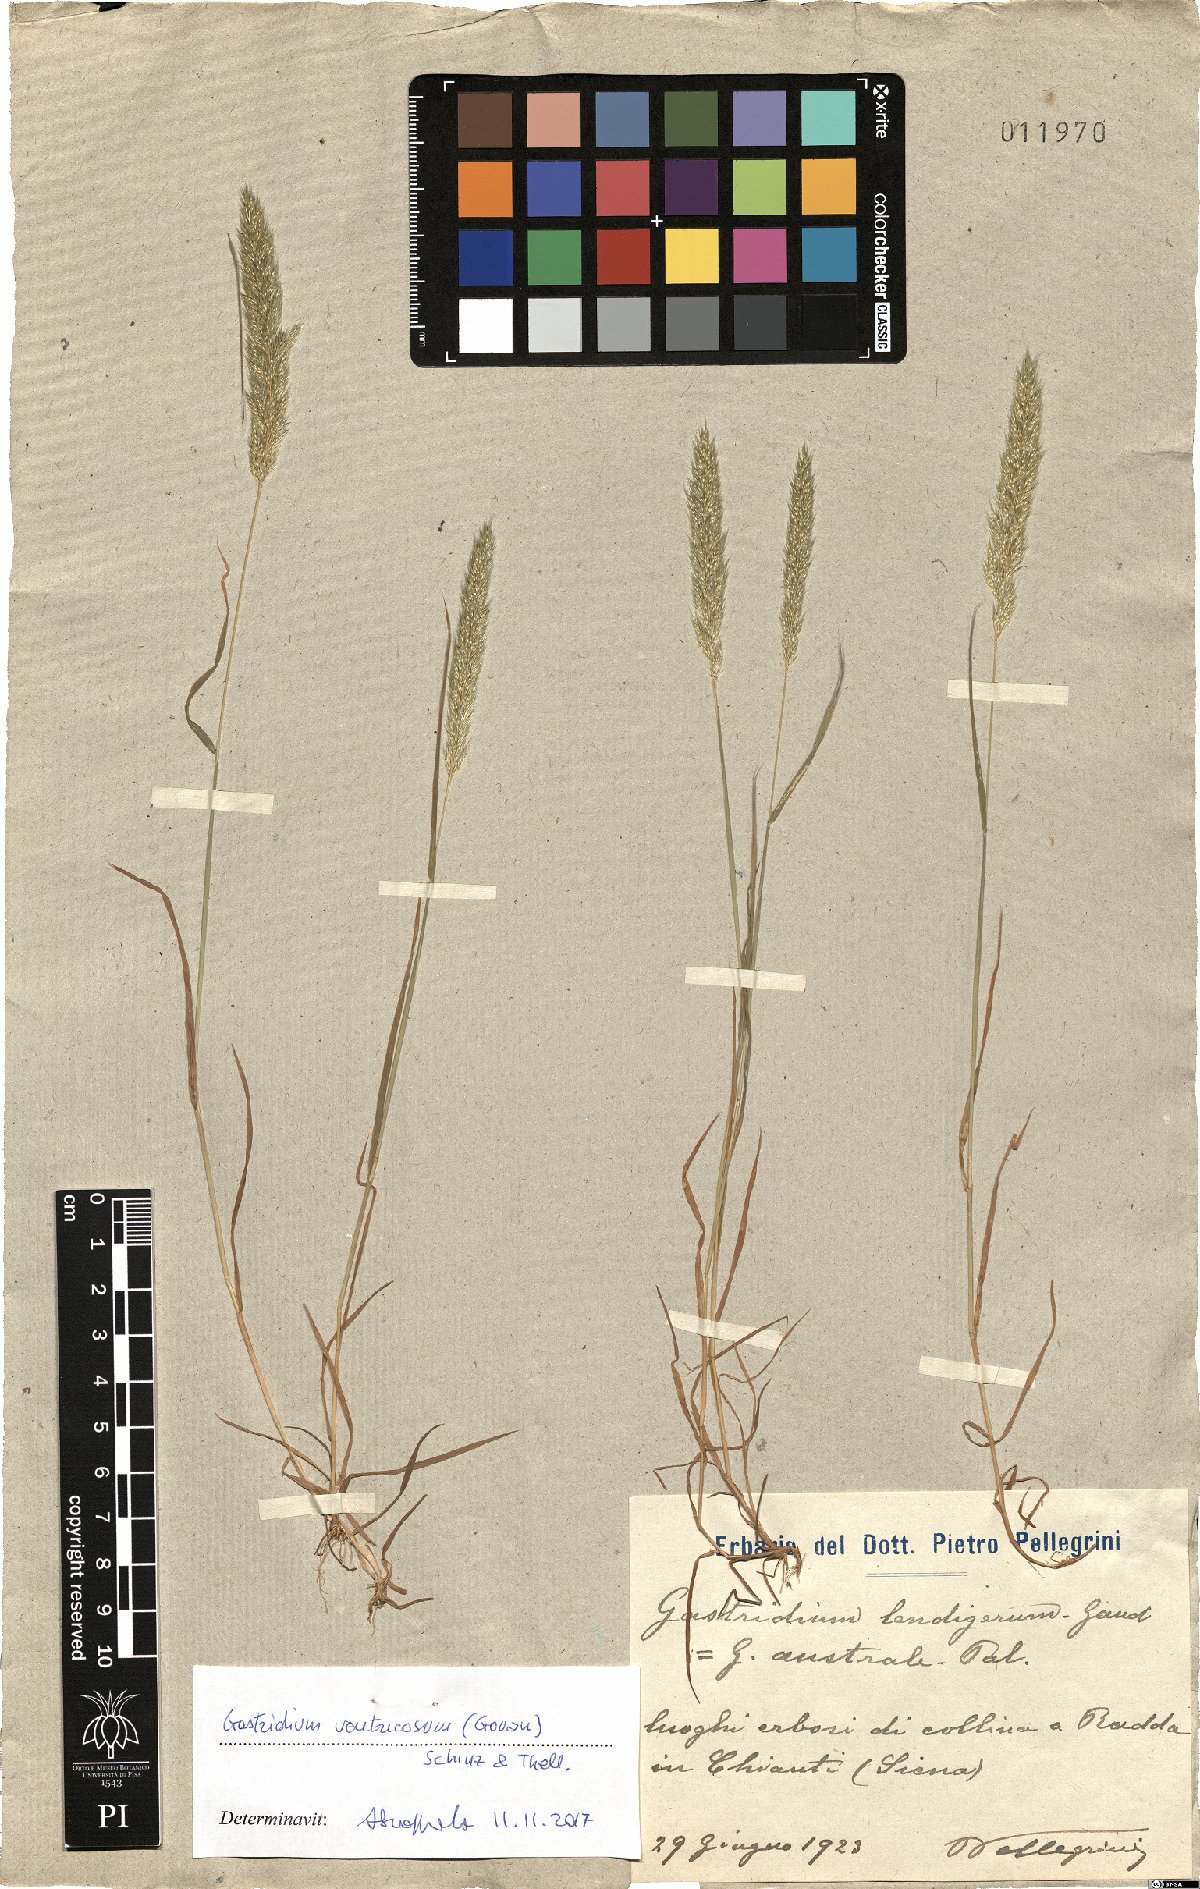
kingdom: Plantae
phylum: Tracheophyta
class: Liliopsida
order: Poales
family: Poaceae
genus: Gastridium
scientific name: Gastridium ventricosum
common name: Nit-grass
